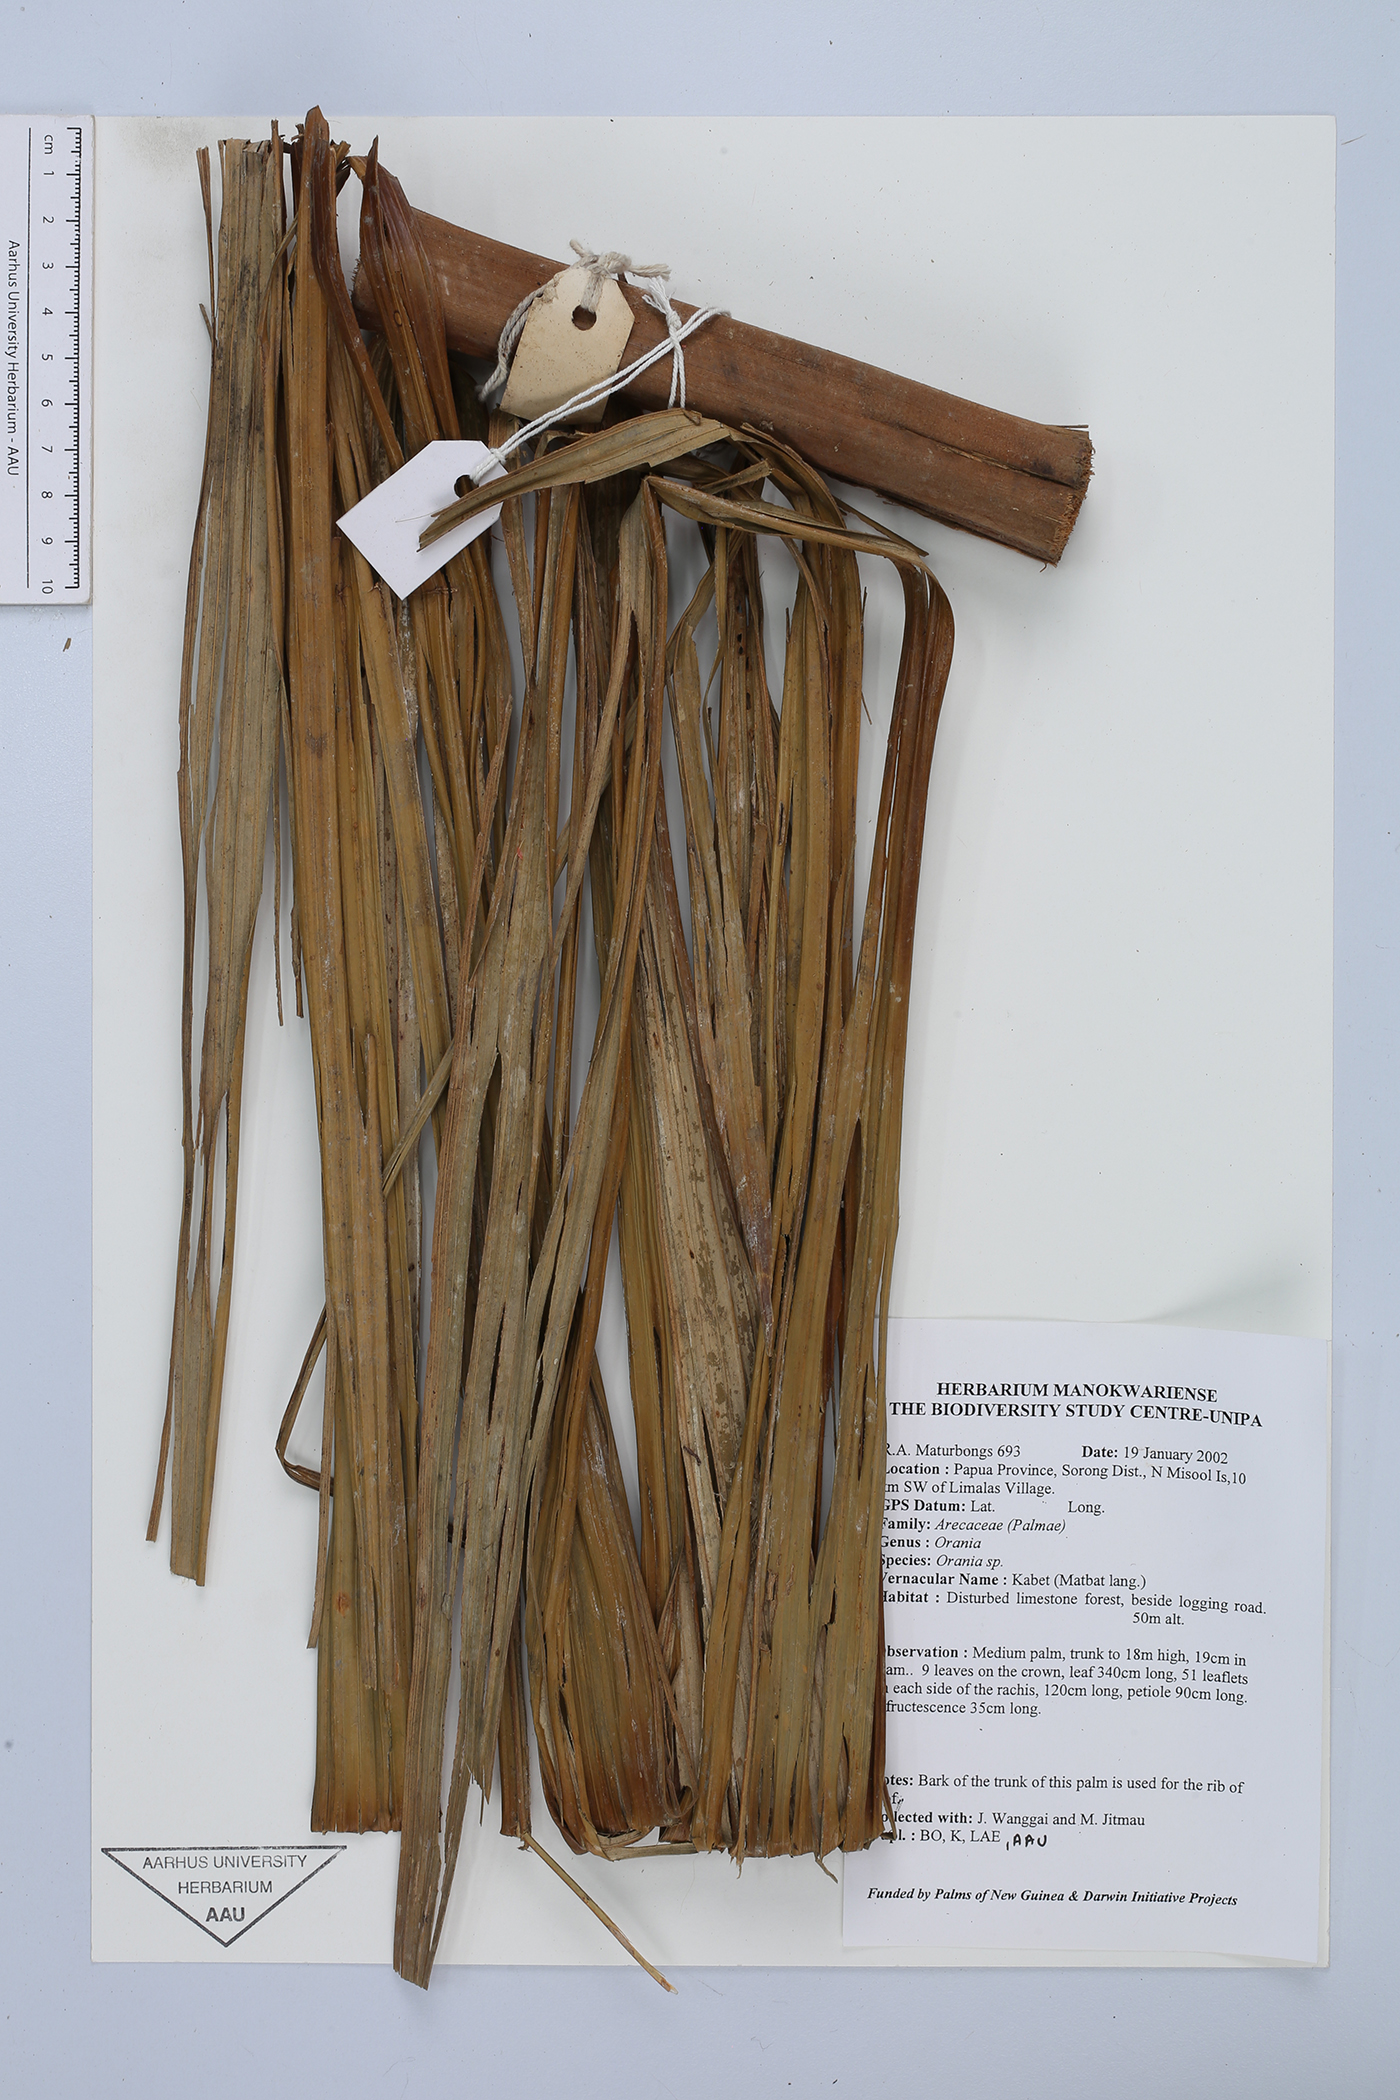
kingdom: Plantae
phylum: Tracheophyta
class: Liliopsida
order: Arecales
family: Arecaceae
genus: Orania
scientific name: Orania
